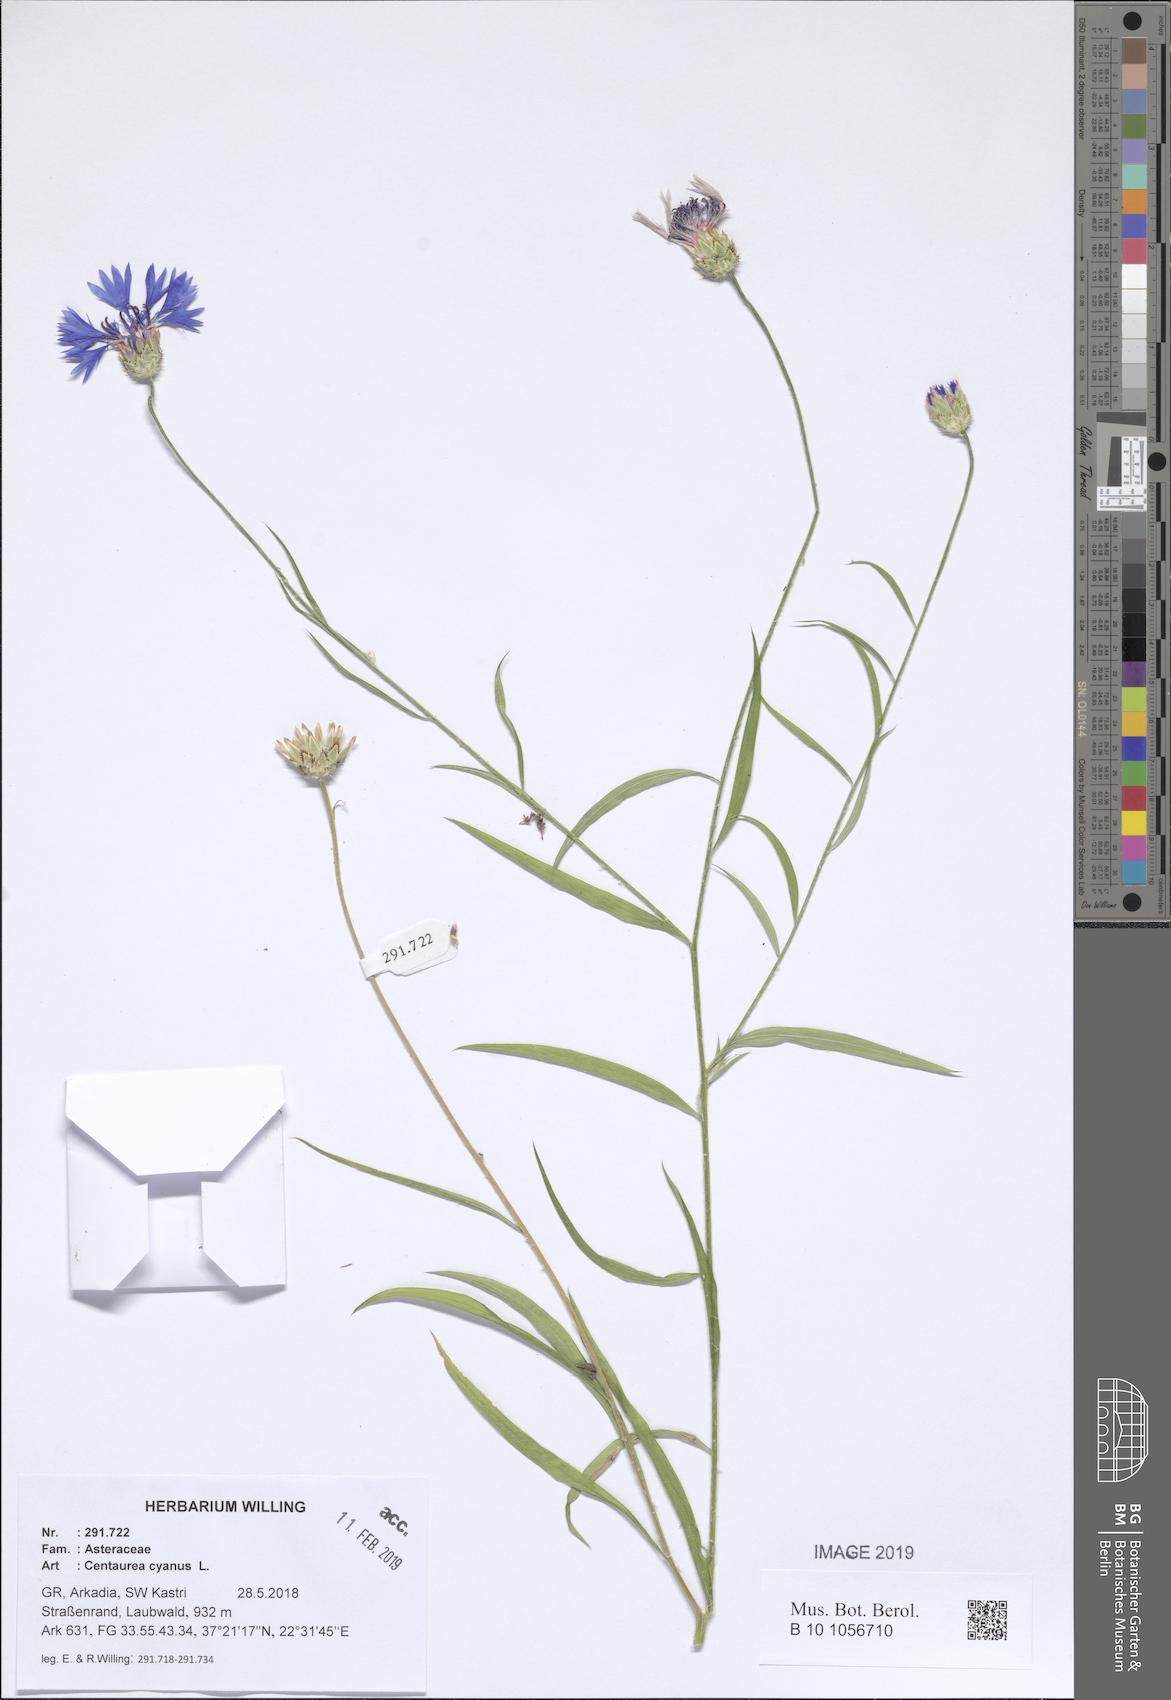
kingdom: Plantae
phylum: Tracheophyta
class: Magnoliopsida
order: Asterales
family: Asteraceae
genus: Centaurea
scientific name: Centaurea cyanus
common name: Cornflower
